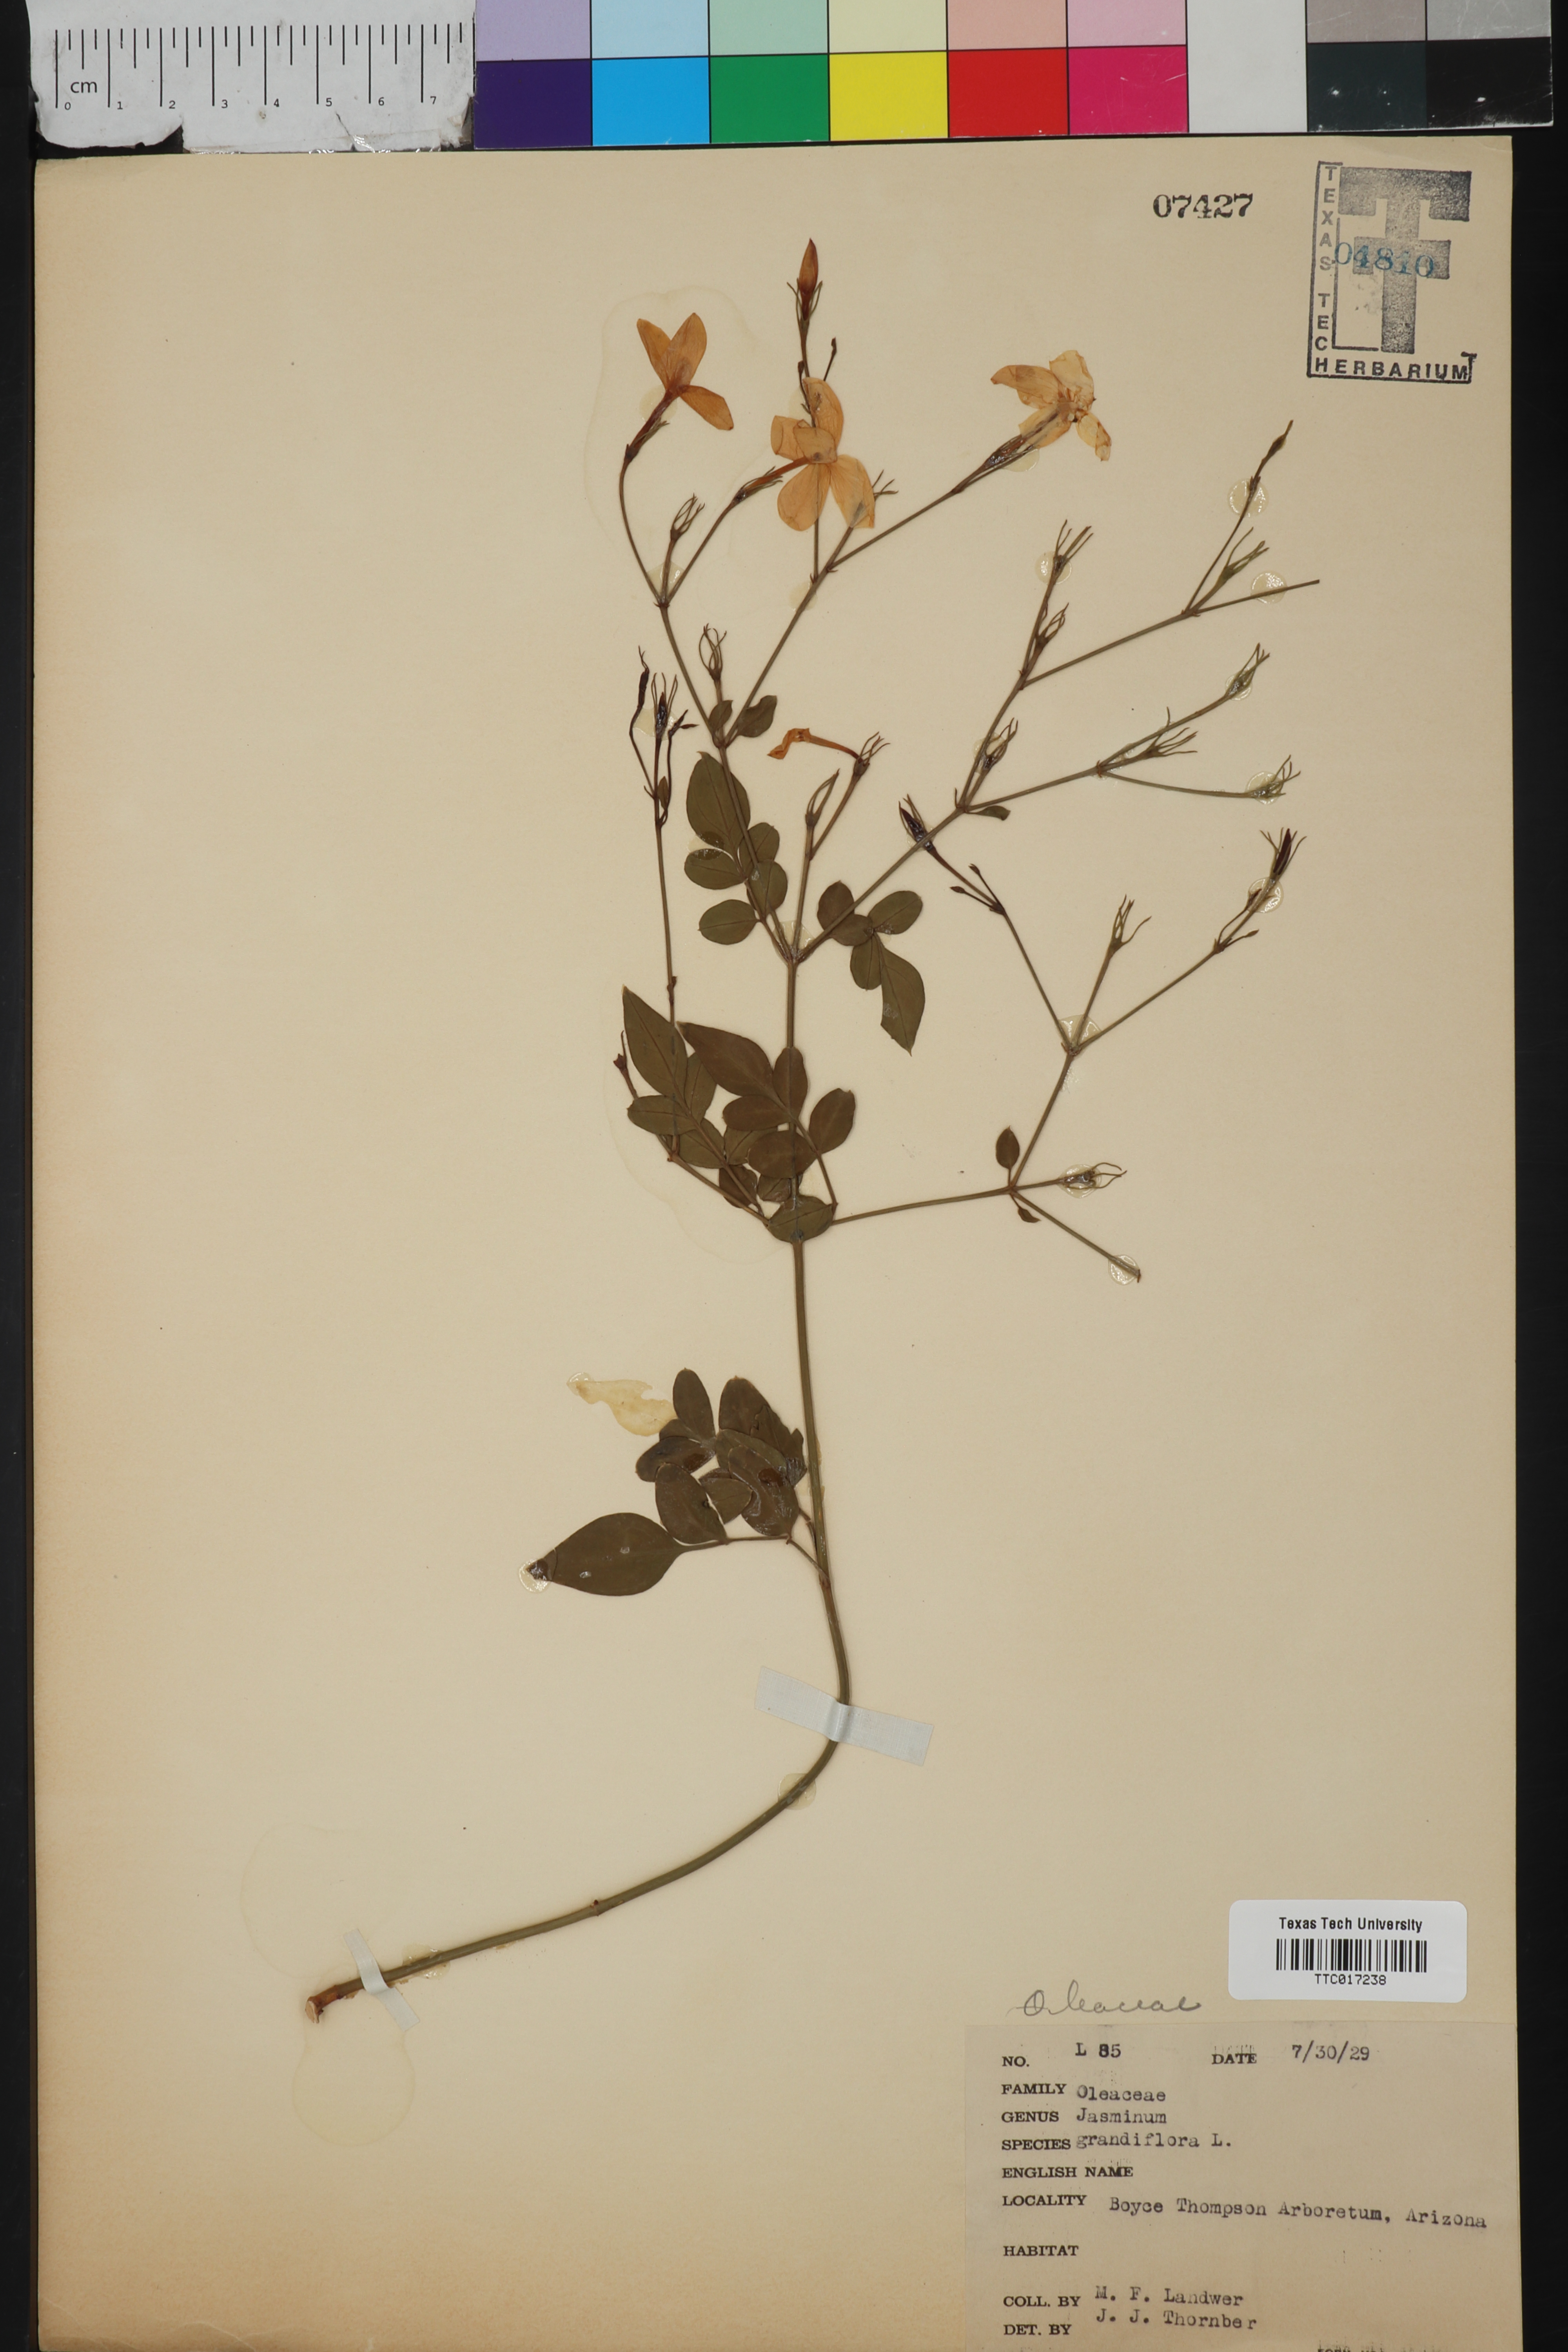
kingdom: Plantae
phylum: Tracheophyta
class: Magnoliopsida
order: Lamiales
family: Oleaceae
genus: Jasminum
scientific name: Jasminum grandiflorum
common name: Catalonian jasmine
